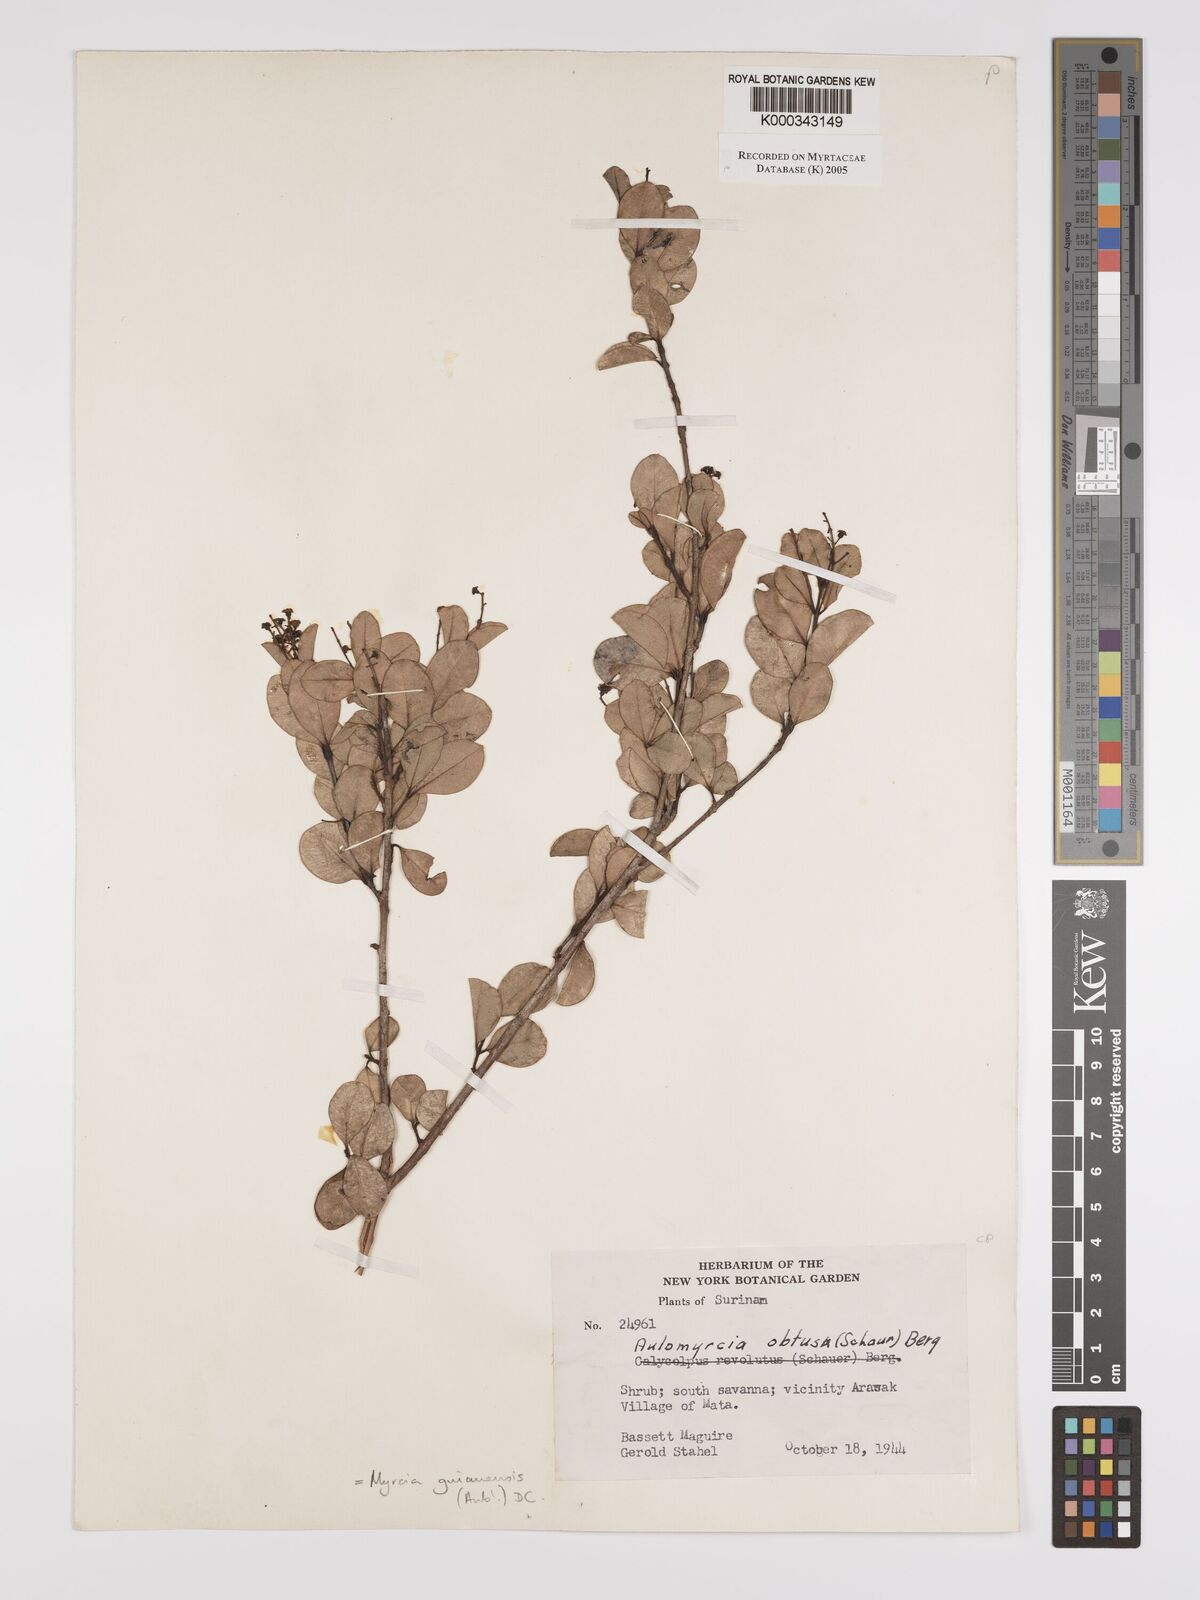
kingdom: Plantae
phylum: Tracheophyta
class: Magnoliopsida
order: Myrtales
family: Myrtaceae
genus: Myrcia
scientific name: Myrcia guianensis
